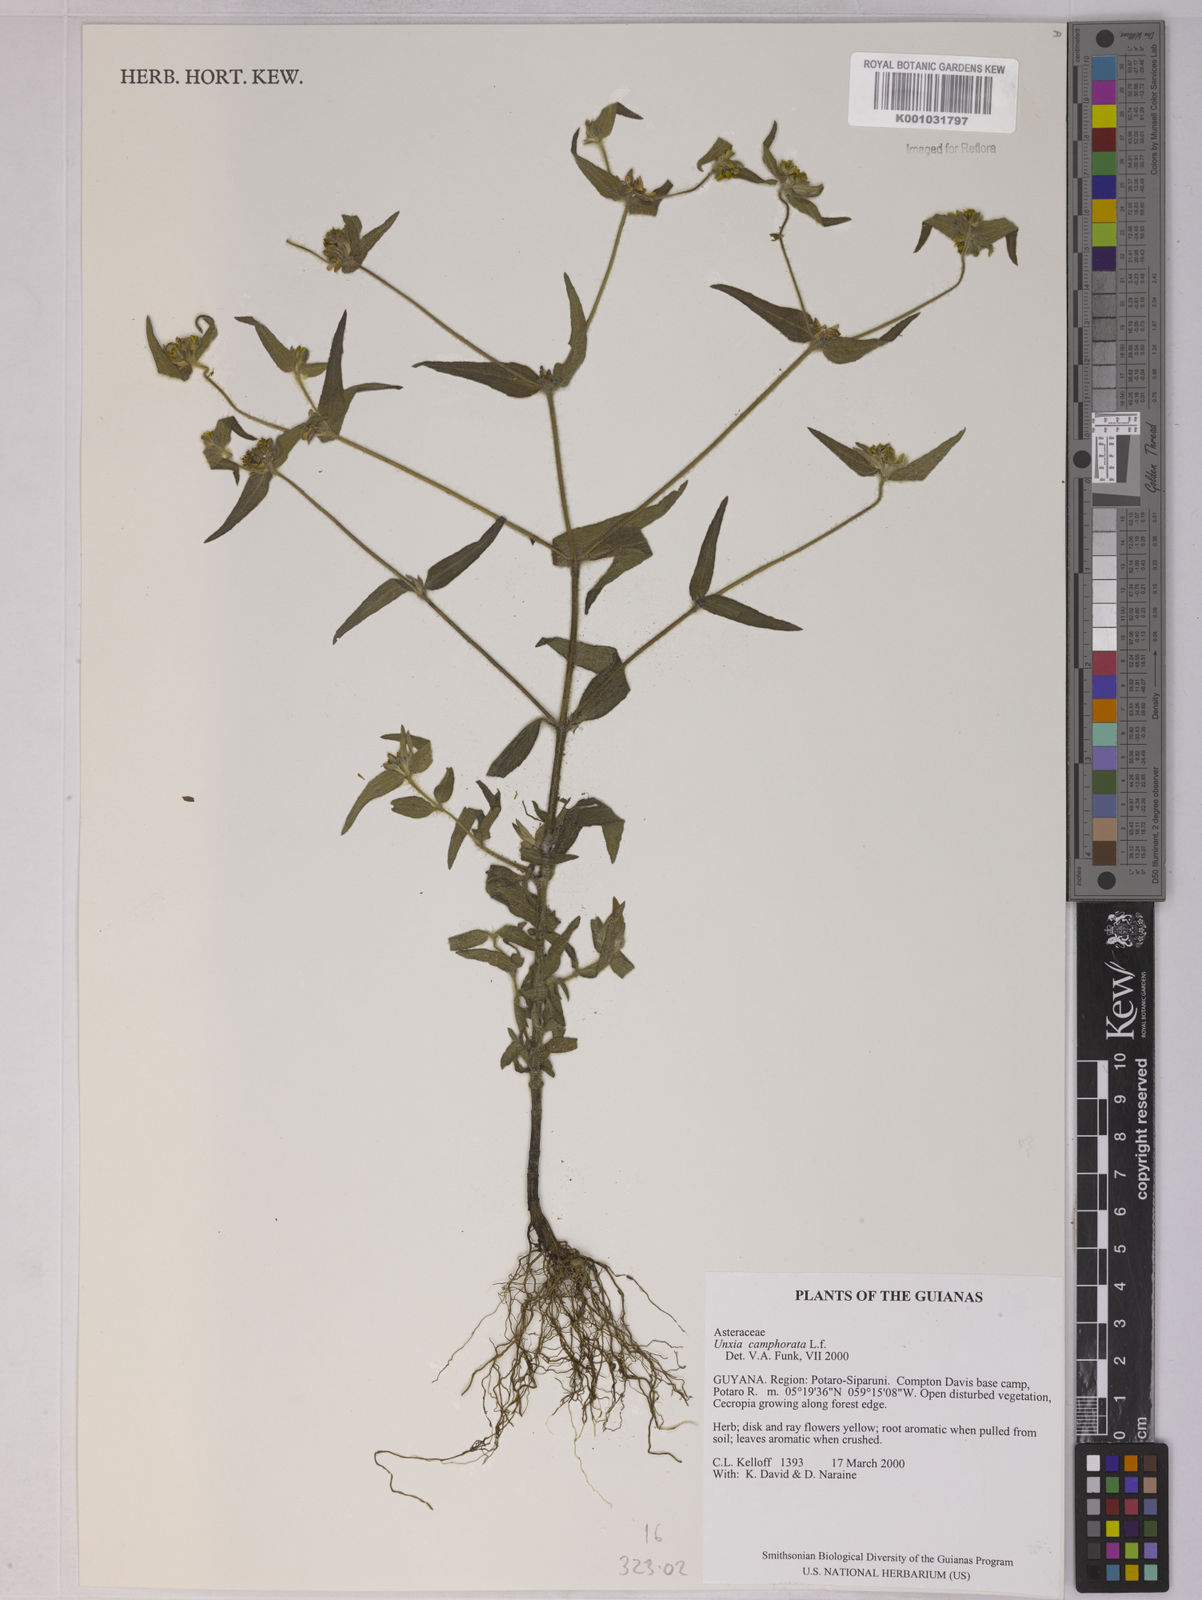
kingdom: Plantae
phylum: Tracheophyta
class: Magnoliopsida
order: Asterales
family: Asteraceae
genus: Unxia
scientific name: Unxia camphorata
